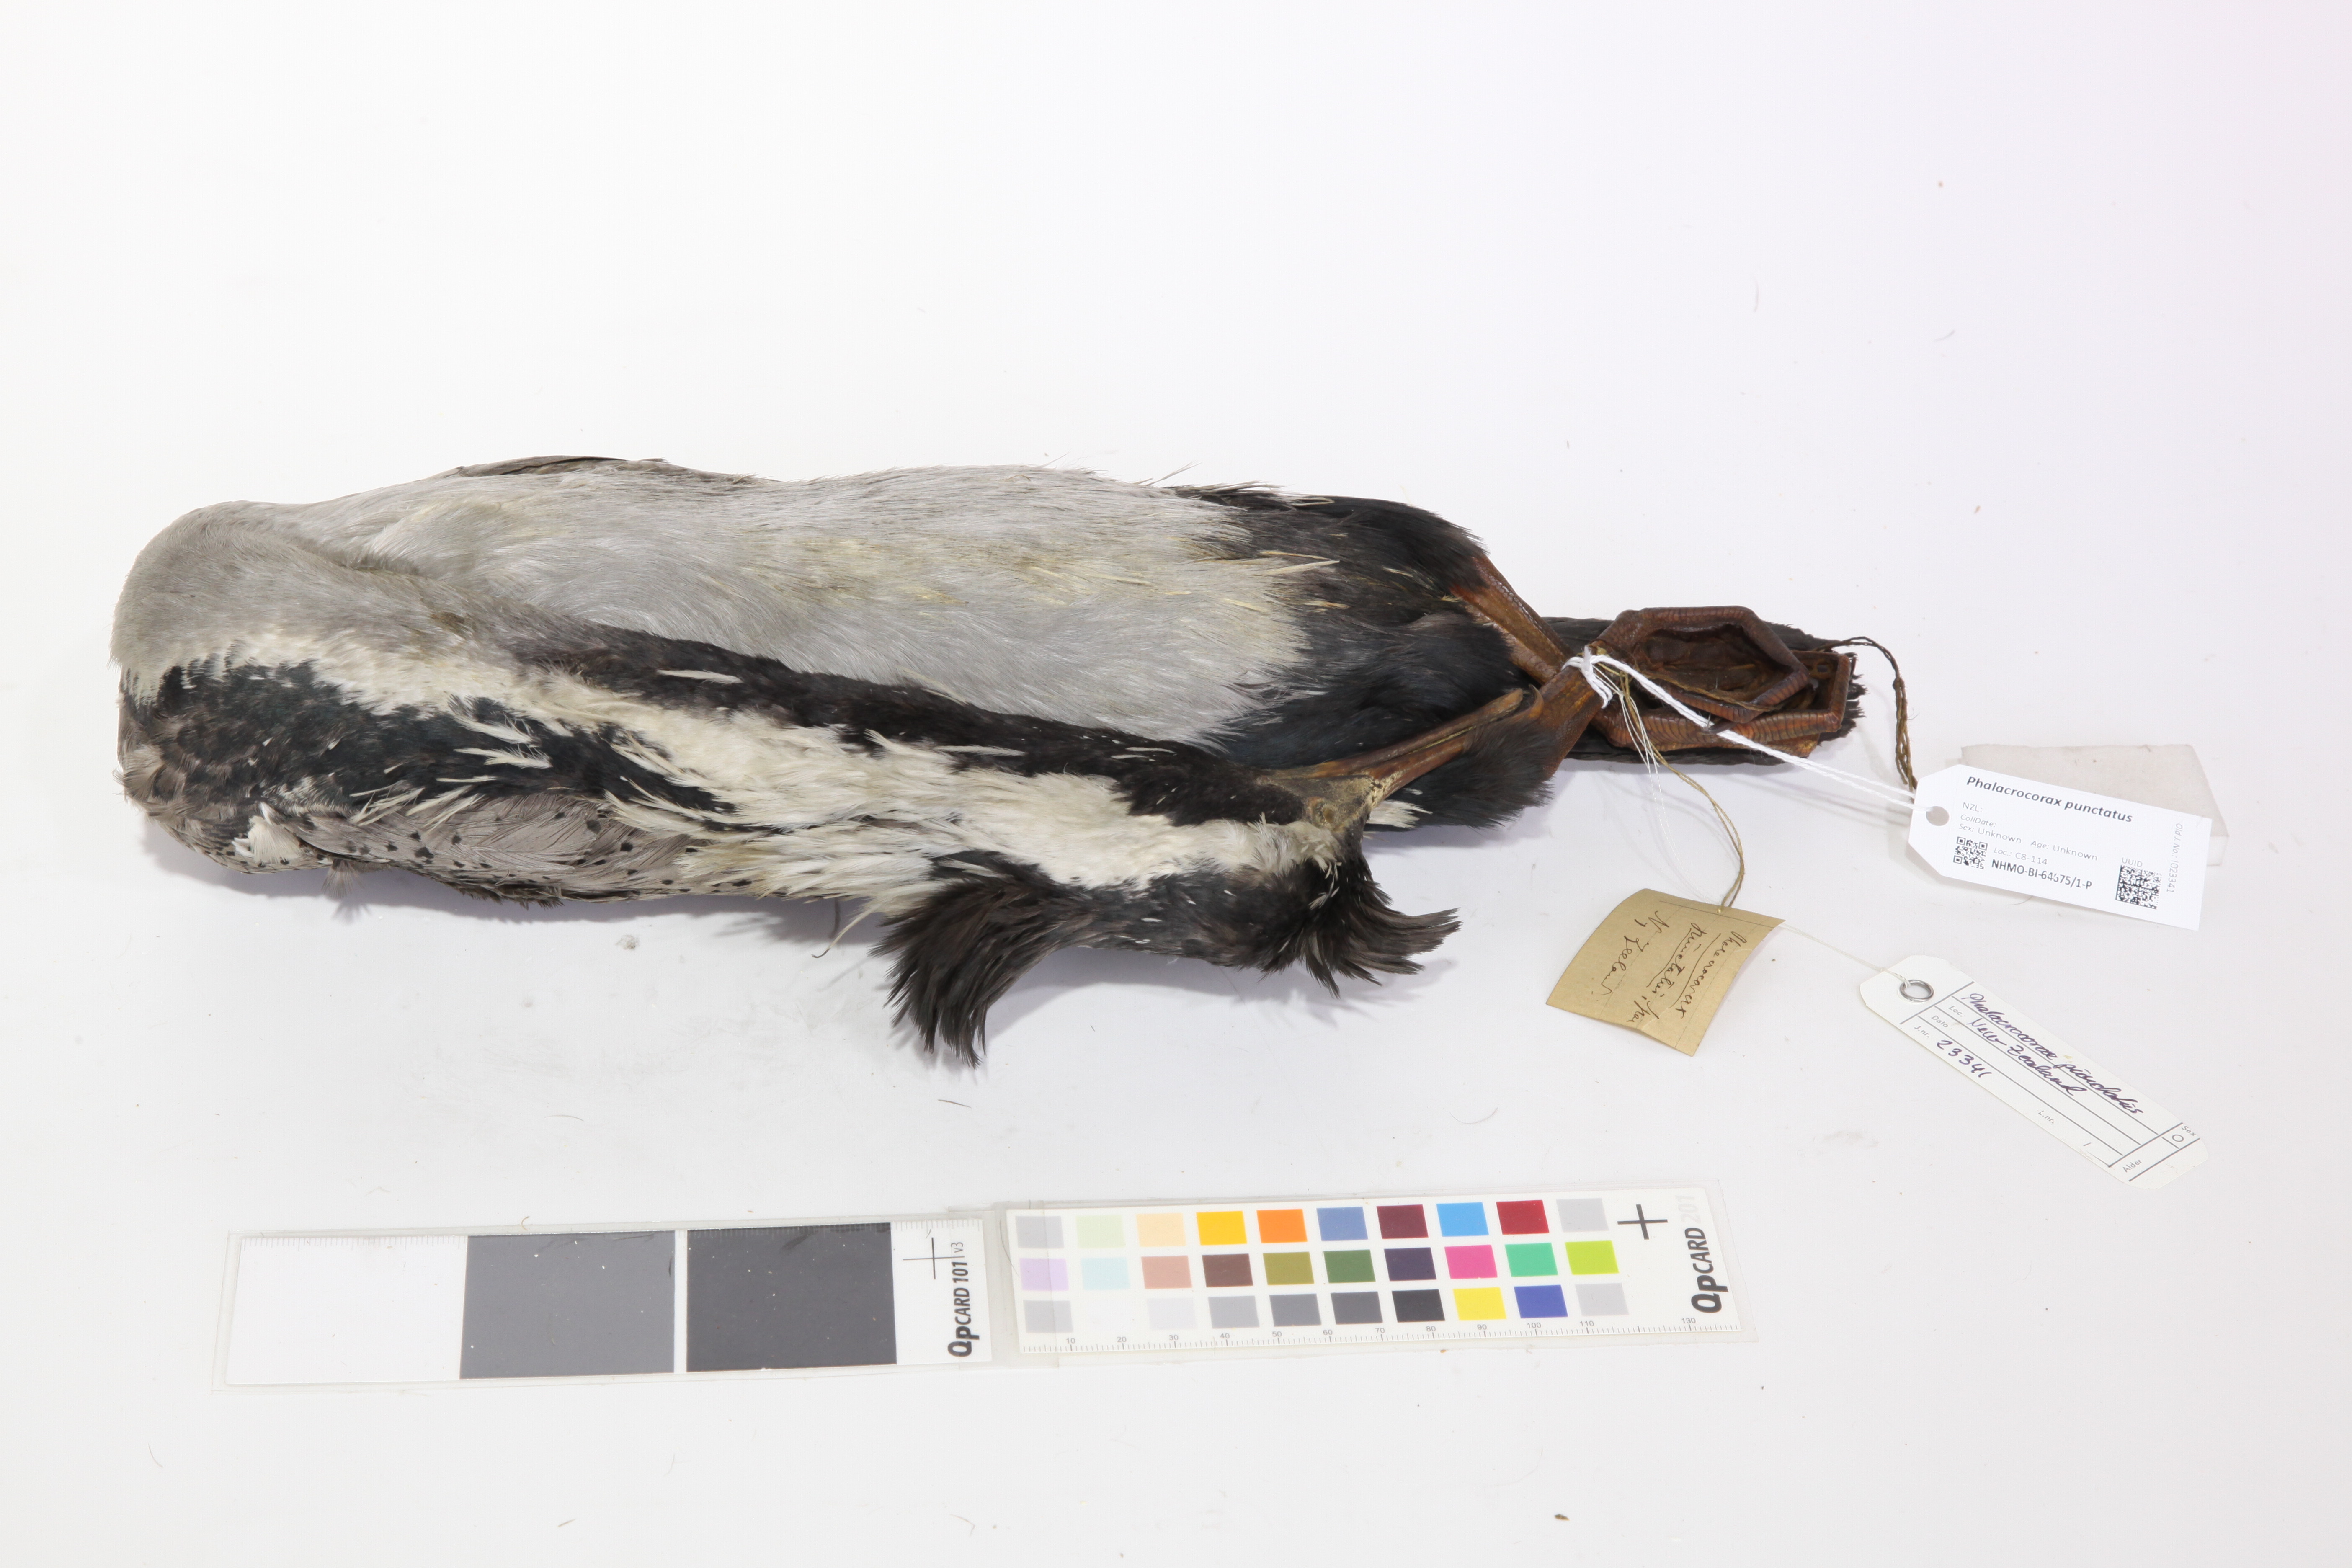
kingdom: Animalia
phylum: Chordata
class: Aves
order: Suliformes
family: Phalacrocoracidae
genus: Phalacrocorax
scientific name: Phalacrocorax punctatus
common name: Spotted shag
